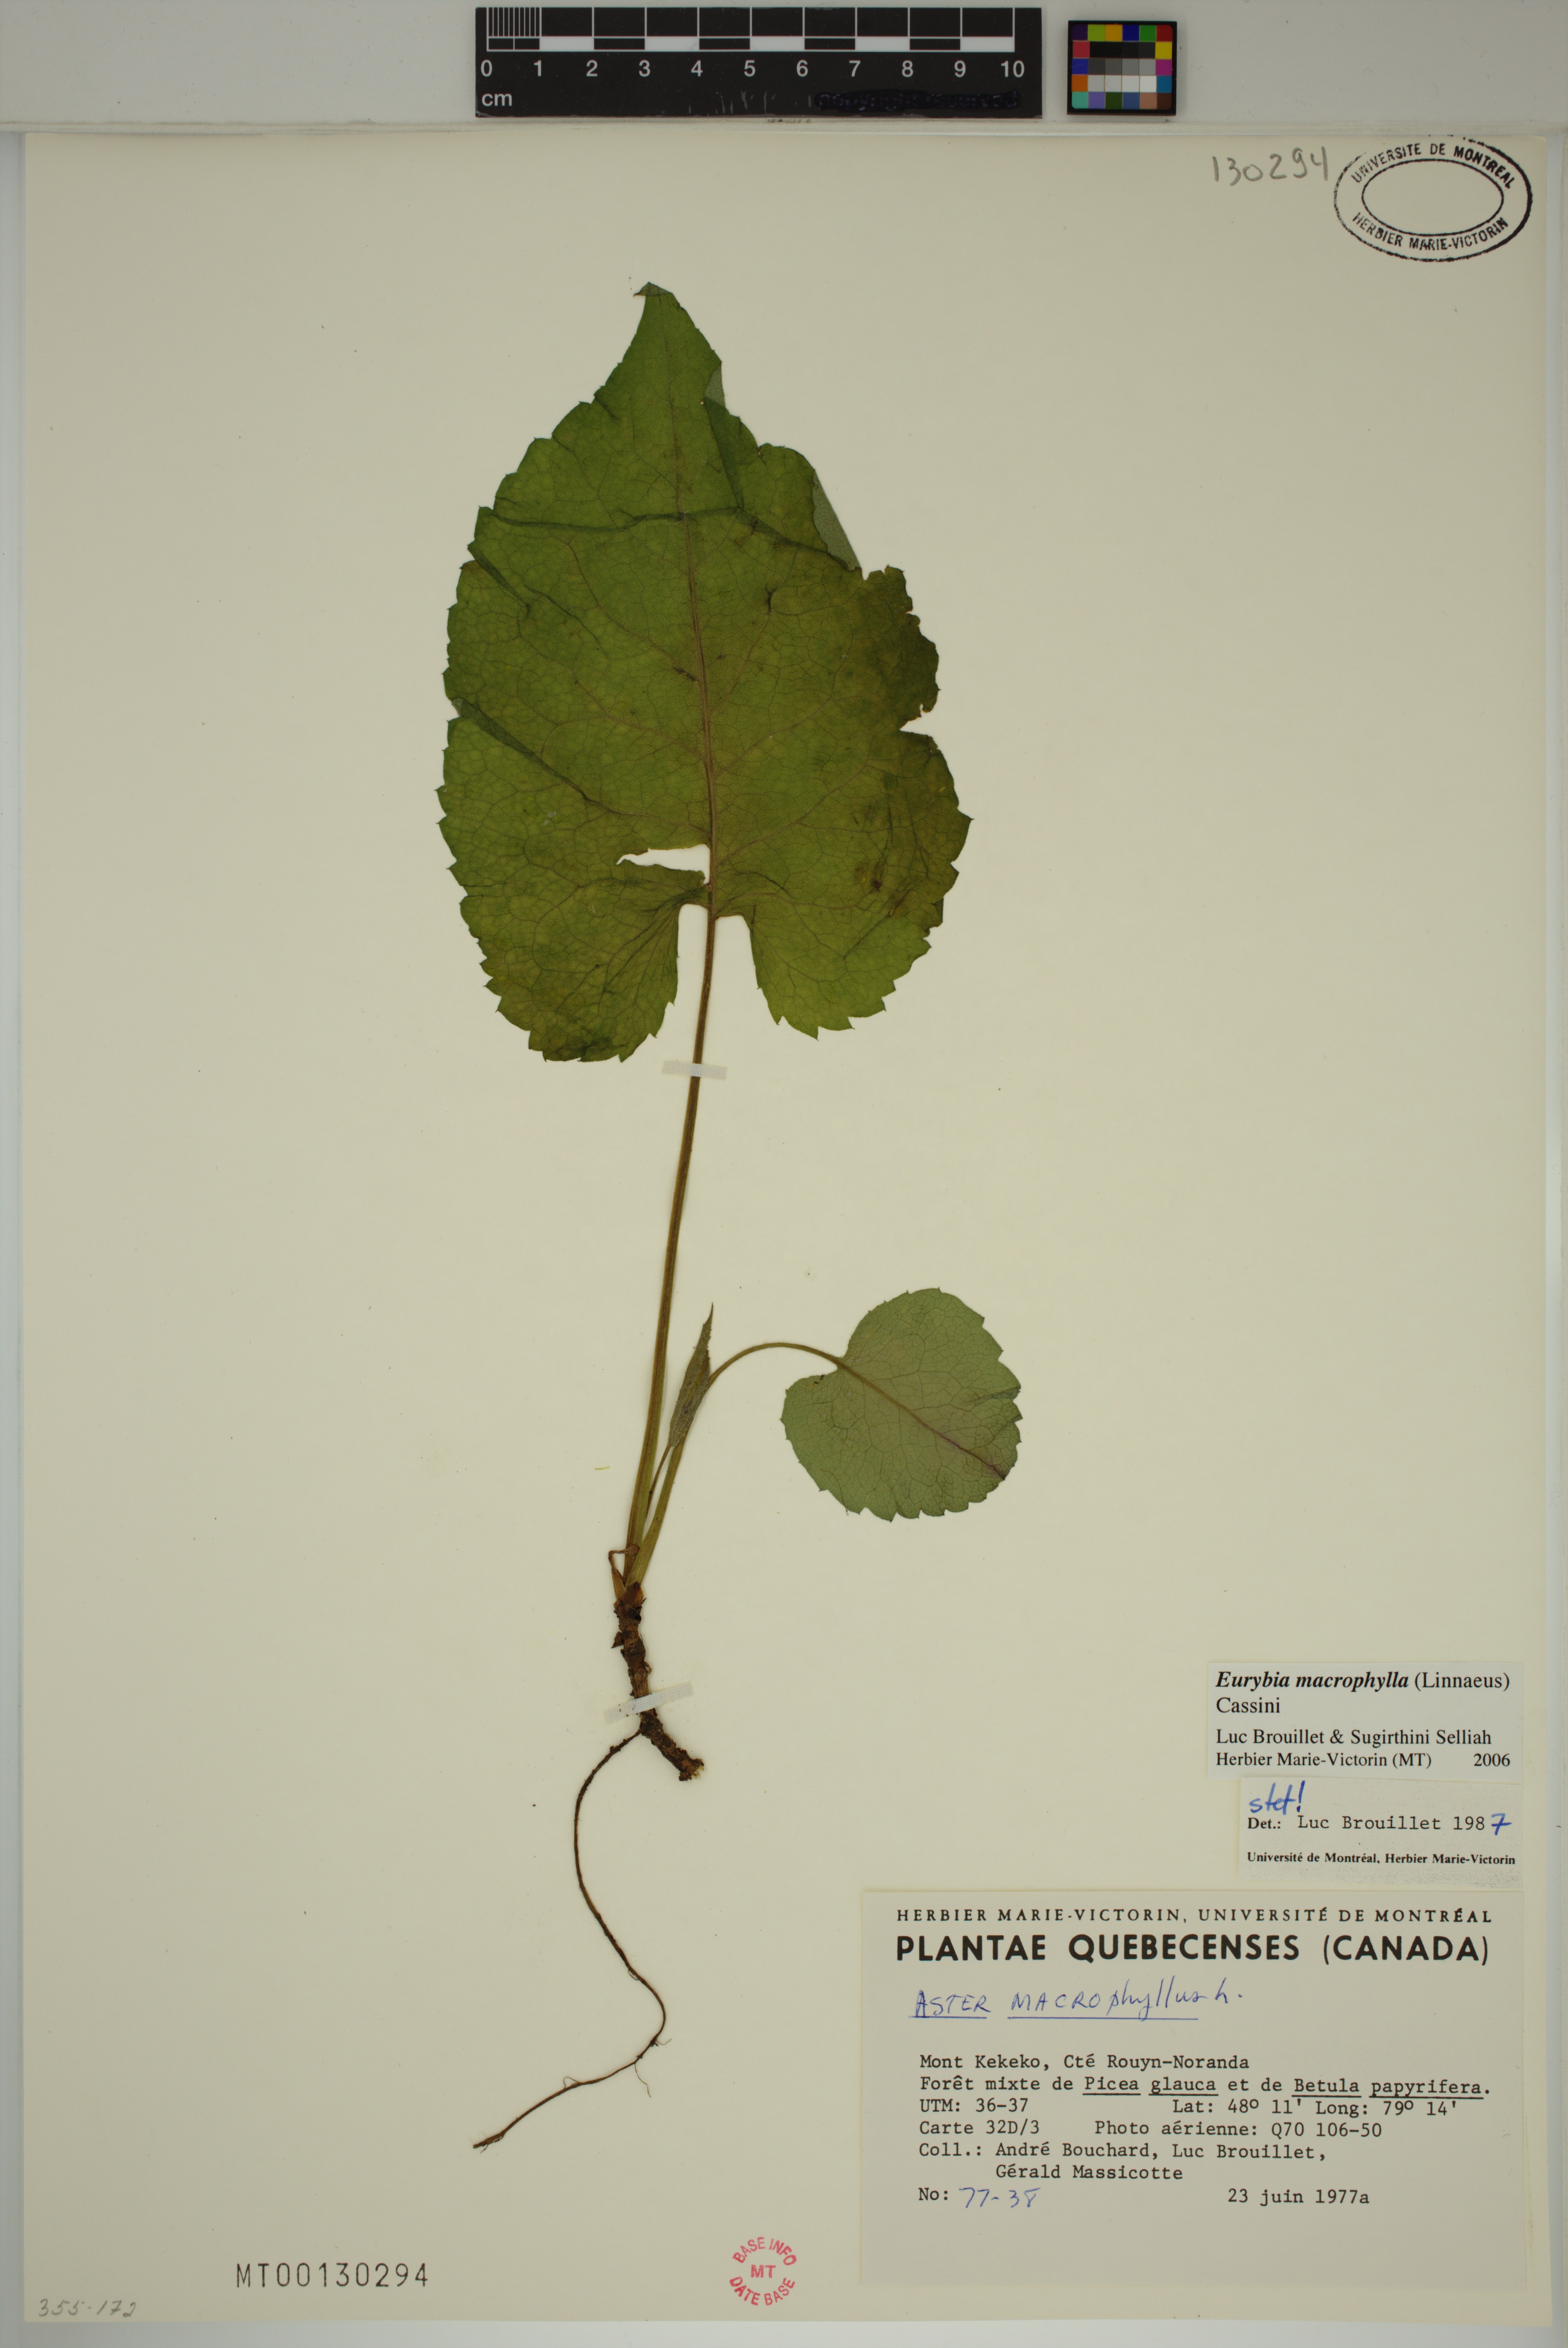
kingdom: Plantae
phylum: Tracheophyta
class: Magnoliopsida
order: Asterales
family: Asteraceae
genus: Eurybia
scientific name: Eurybia macrophylla
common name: Big-leaved aster
